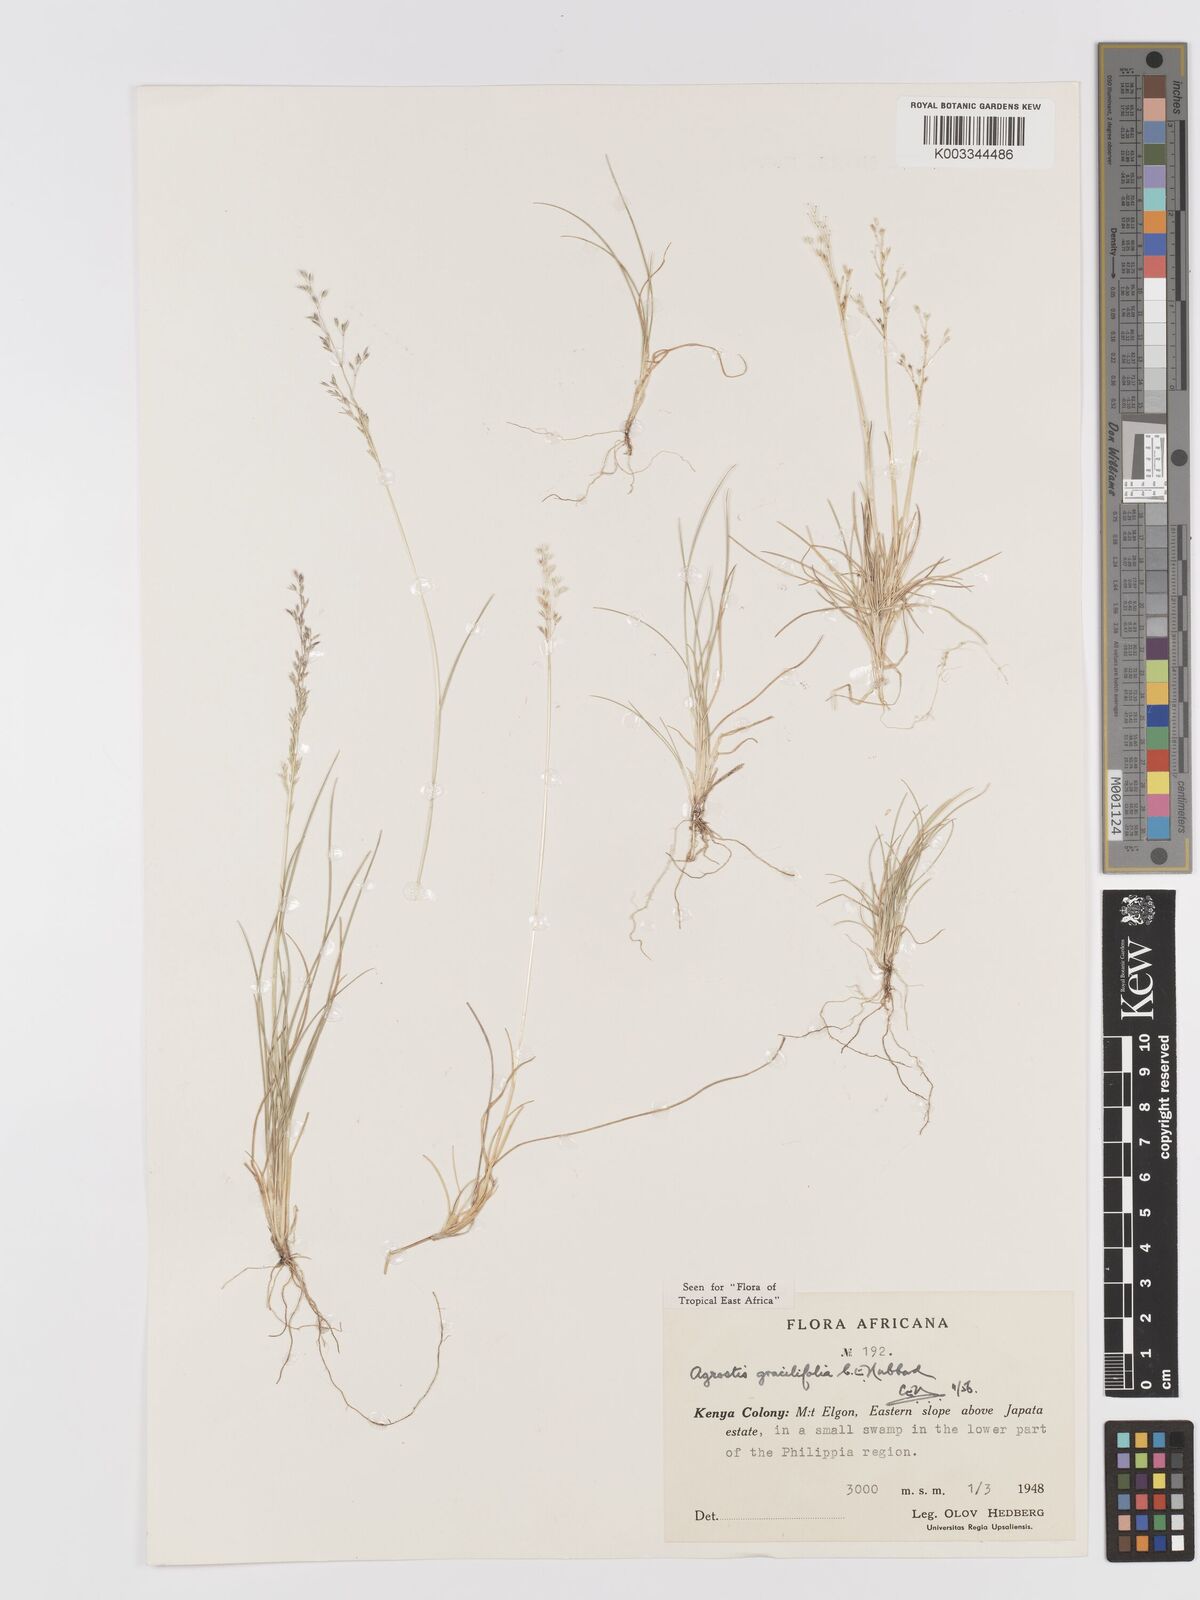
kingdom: Plantae
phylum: Tracheophyta
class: Liliopsida
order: Poales
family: Poaceae
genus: Agrostis
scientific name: Agrostis gracilifolia
